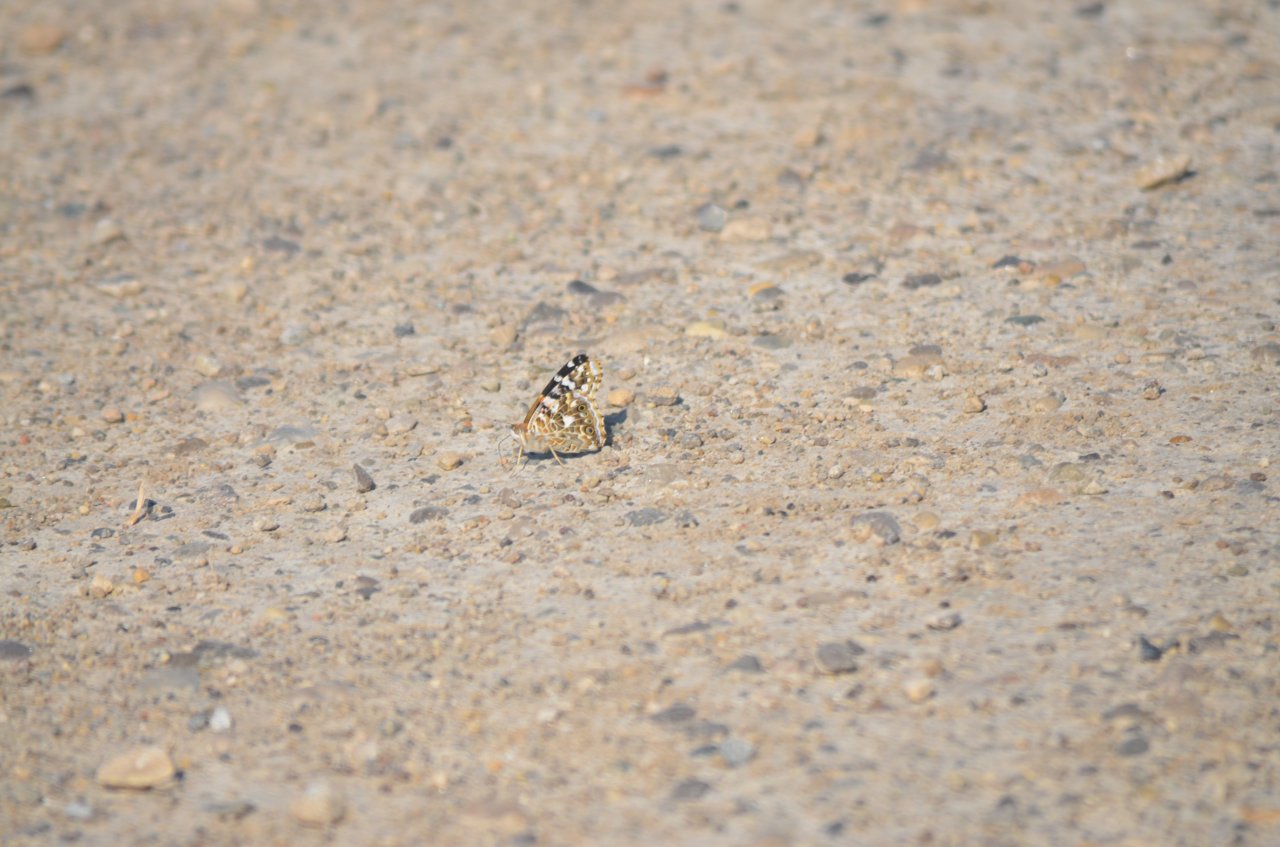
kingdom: Animalia
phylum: Arthropoda
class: Insecta
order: Lepidoptera
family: Nymphalidae
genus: Vanessa
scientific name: Vanessa cardui
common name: Painted Lady
